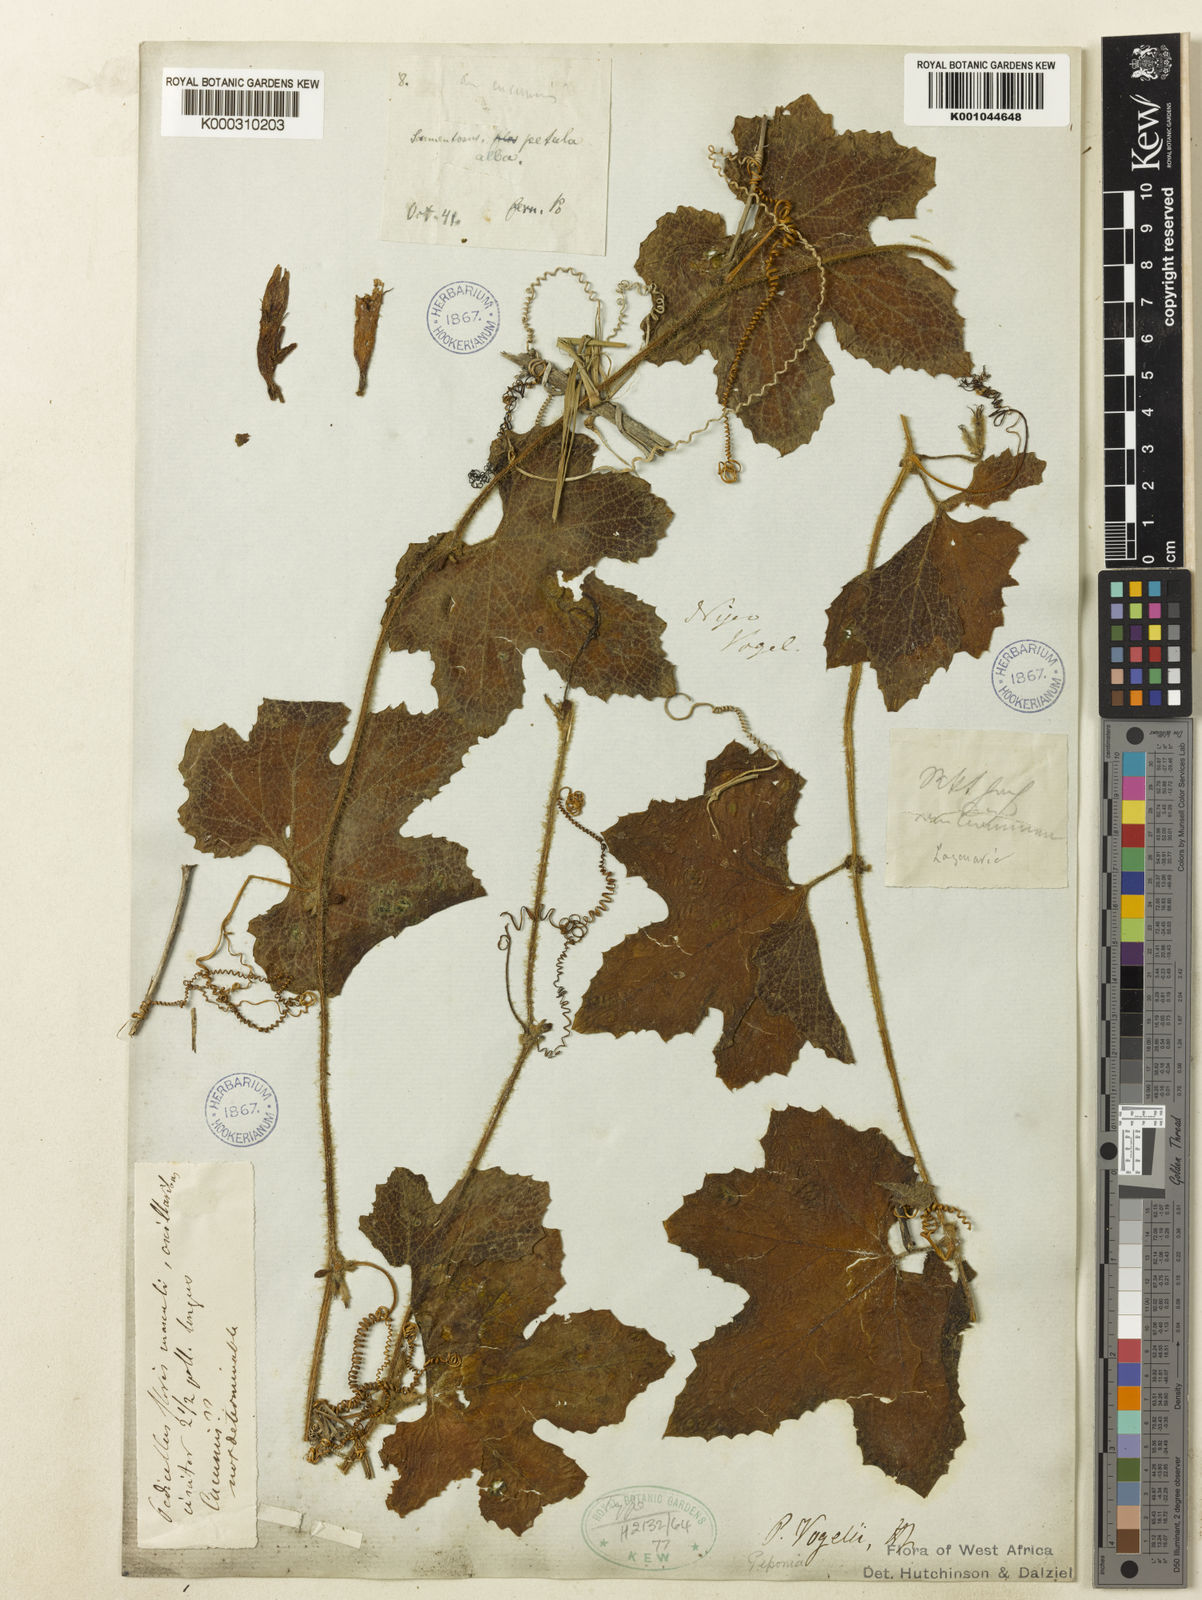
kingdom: Plantae
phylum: Tracheophyta
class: Magnoliopsida
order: Cucurbitales
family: Cucurbitaceae
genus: Peponium
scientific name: Peponium vogelii
